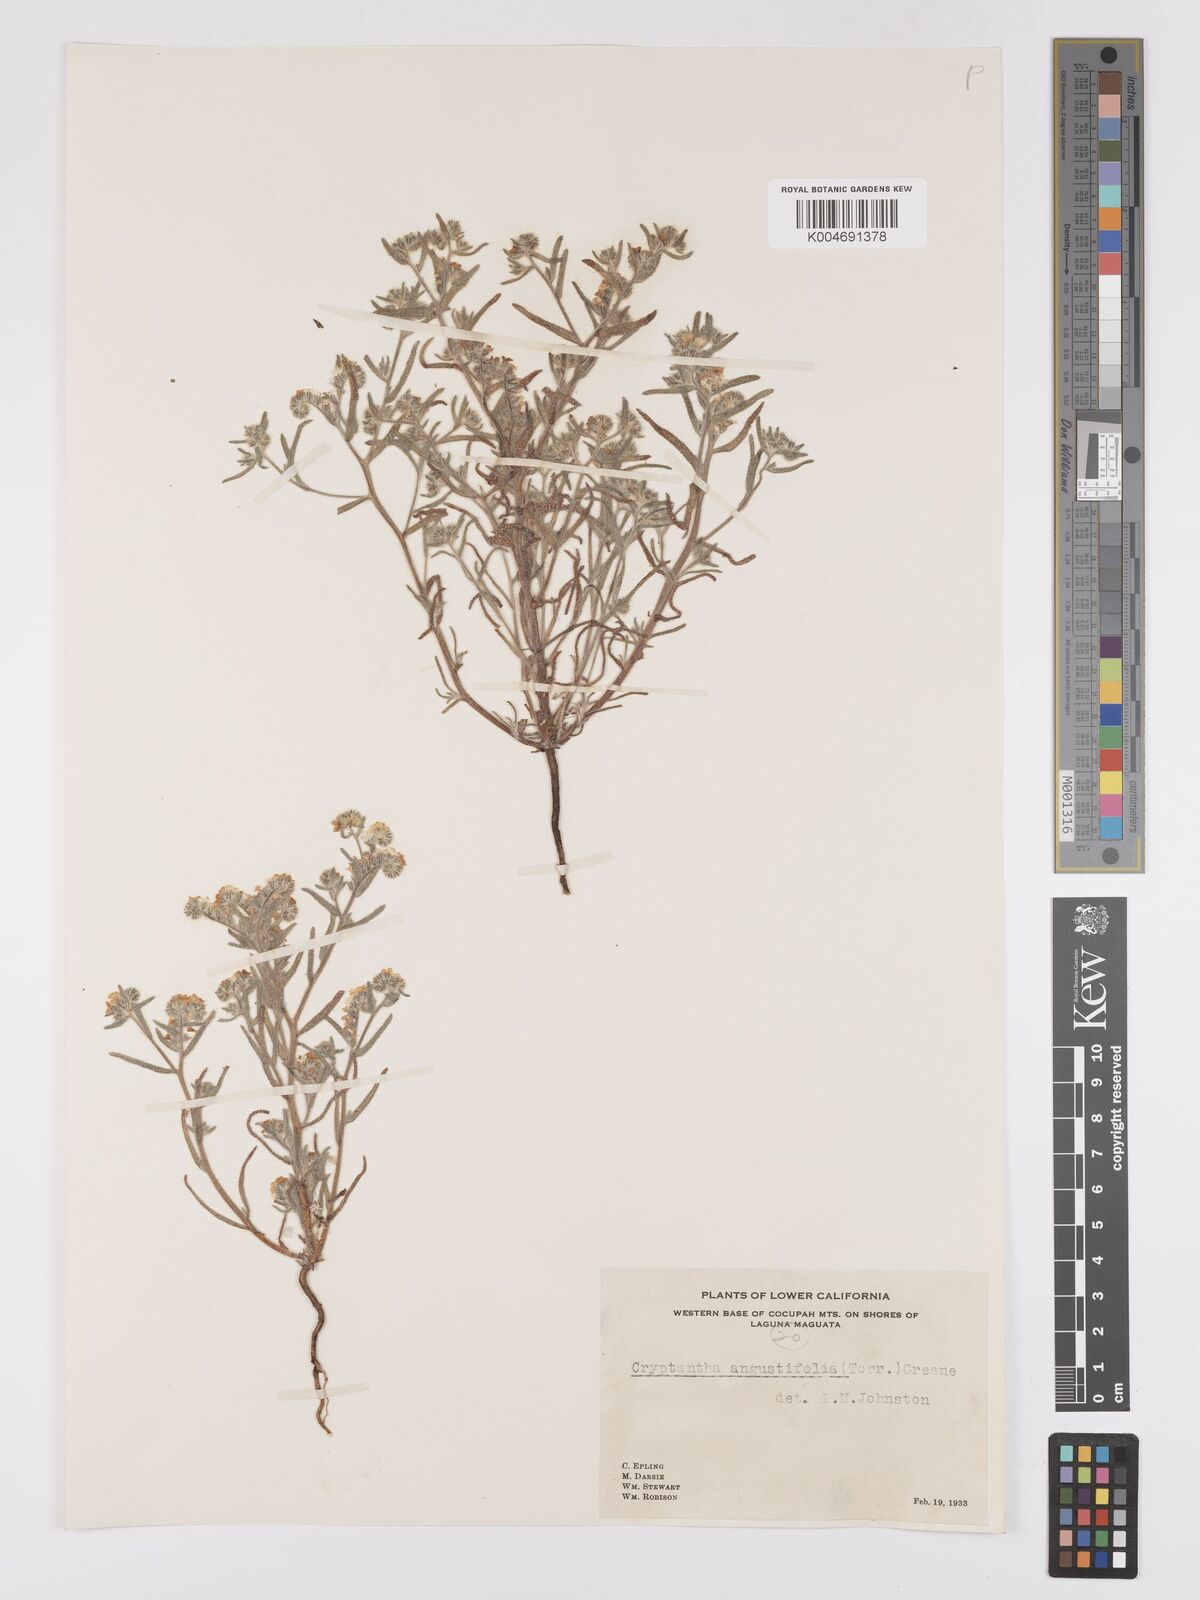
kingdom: Plantae
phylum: Tracheophyta
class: Magnoliopsida
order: Boraginales
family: Boraginaceae
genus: Johnstonella
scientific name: Johnstonella angustifolia
